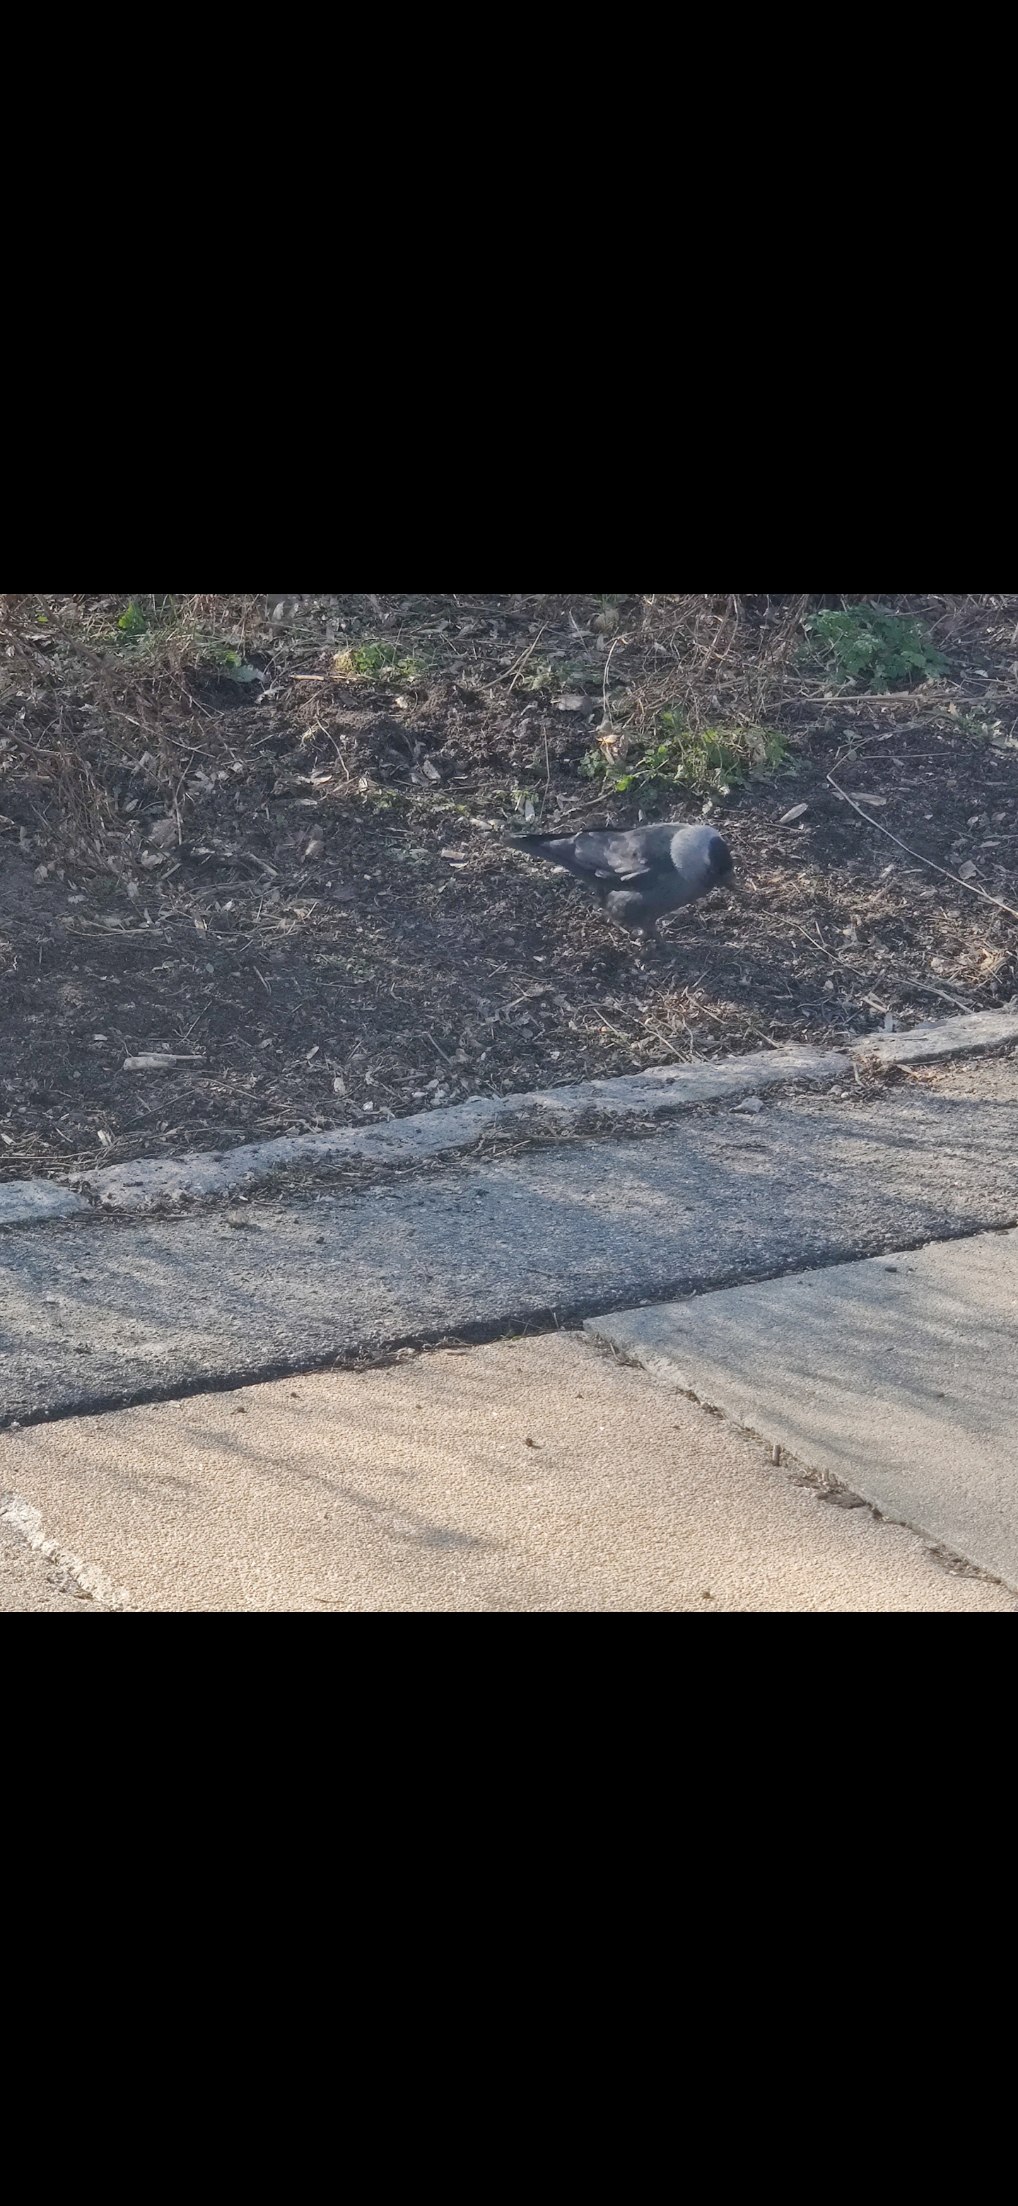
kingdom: Animalia
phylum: Chordata
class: Aves
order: Passeriformes
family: Corvidae
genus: Coloeus
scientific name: Coloeus monedula
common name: Allike
